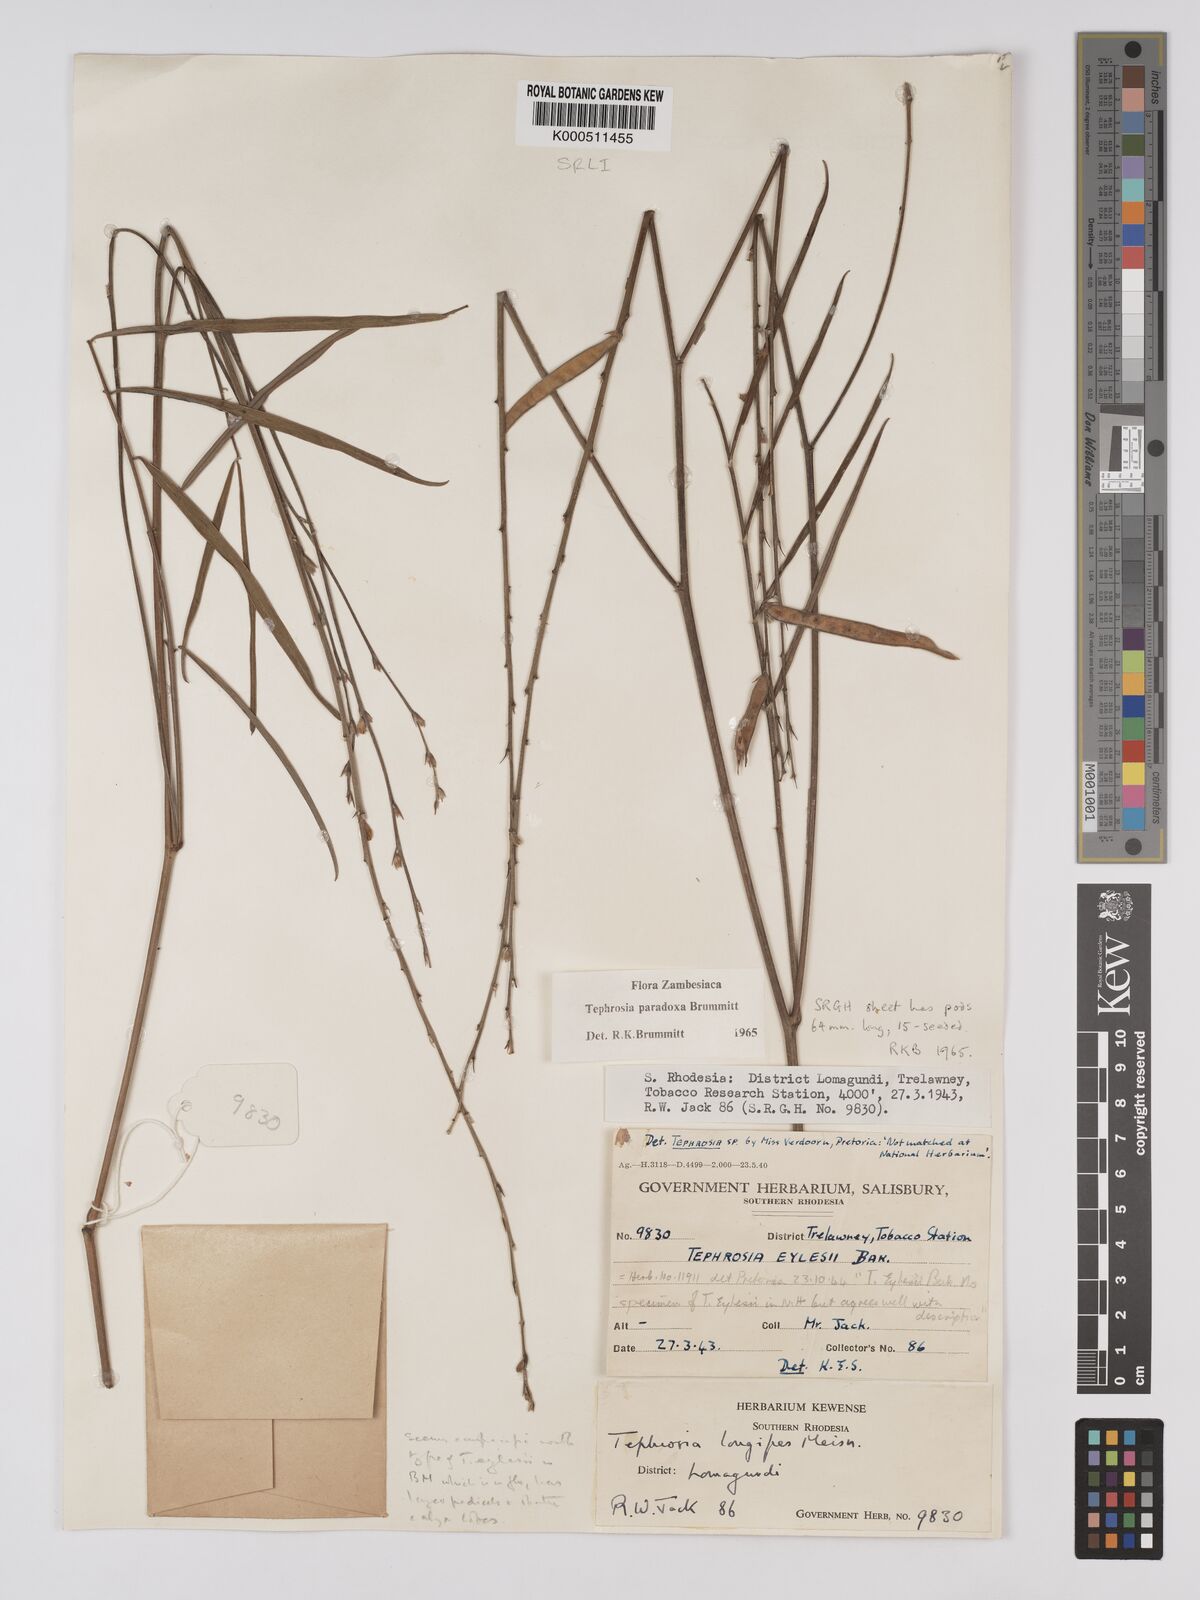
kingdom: Plantae
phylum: Tracheophyta
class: Magnoliopsida
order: Fabales
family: Fabaceae
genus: Tephrosia
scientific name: Tephrosia paradoxa
